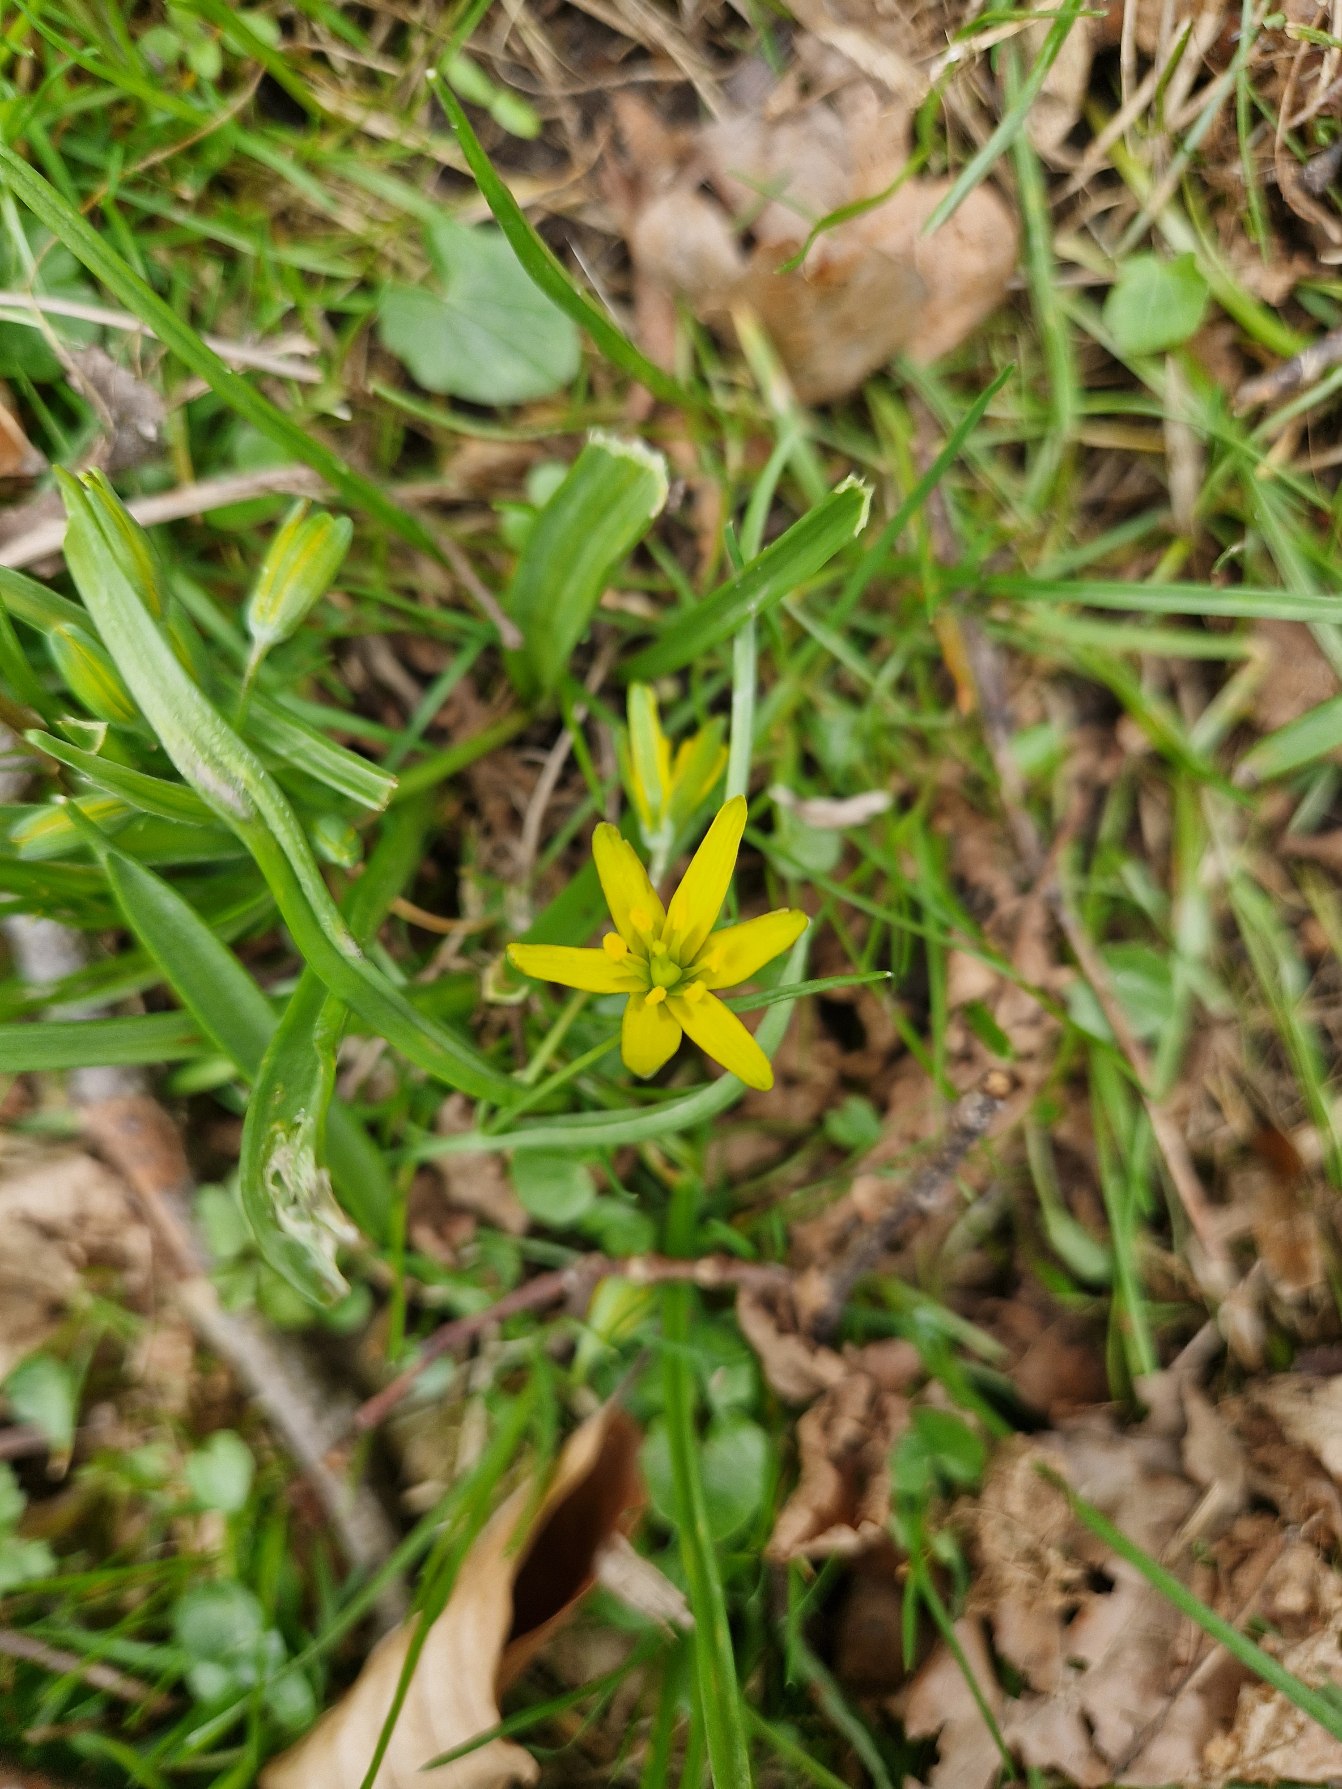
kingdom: Plantae
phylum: Tracheophyta
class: Liliopsida
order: Liliales
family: Liliaceae
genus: Gagea
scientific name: Gagea lutea
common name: Almindelig guldstjerne
